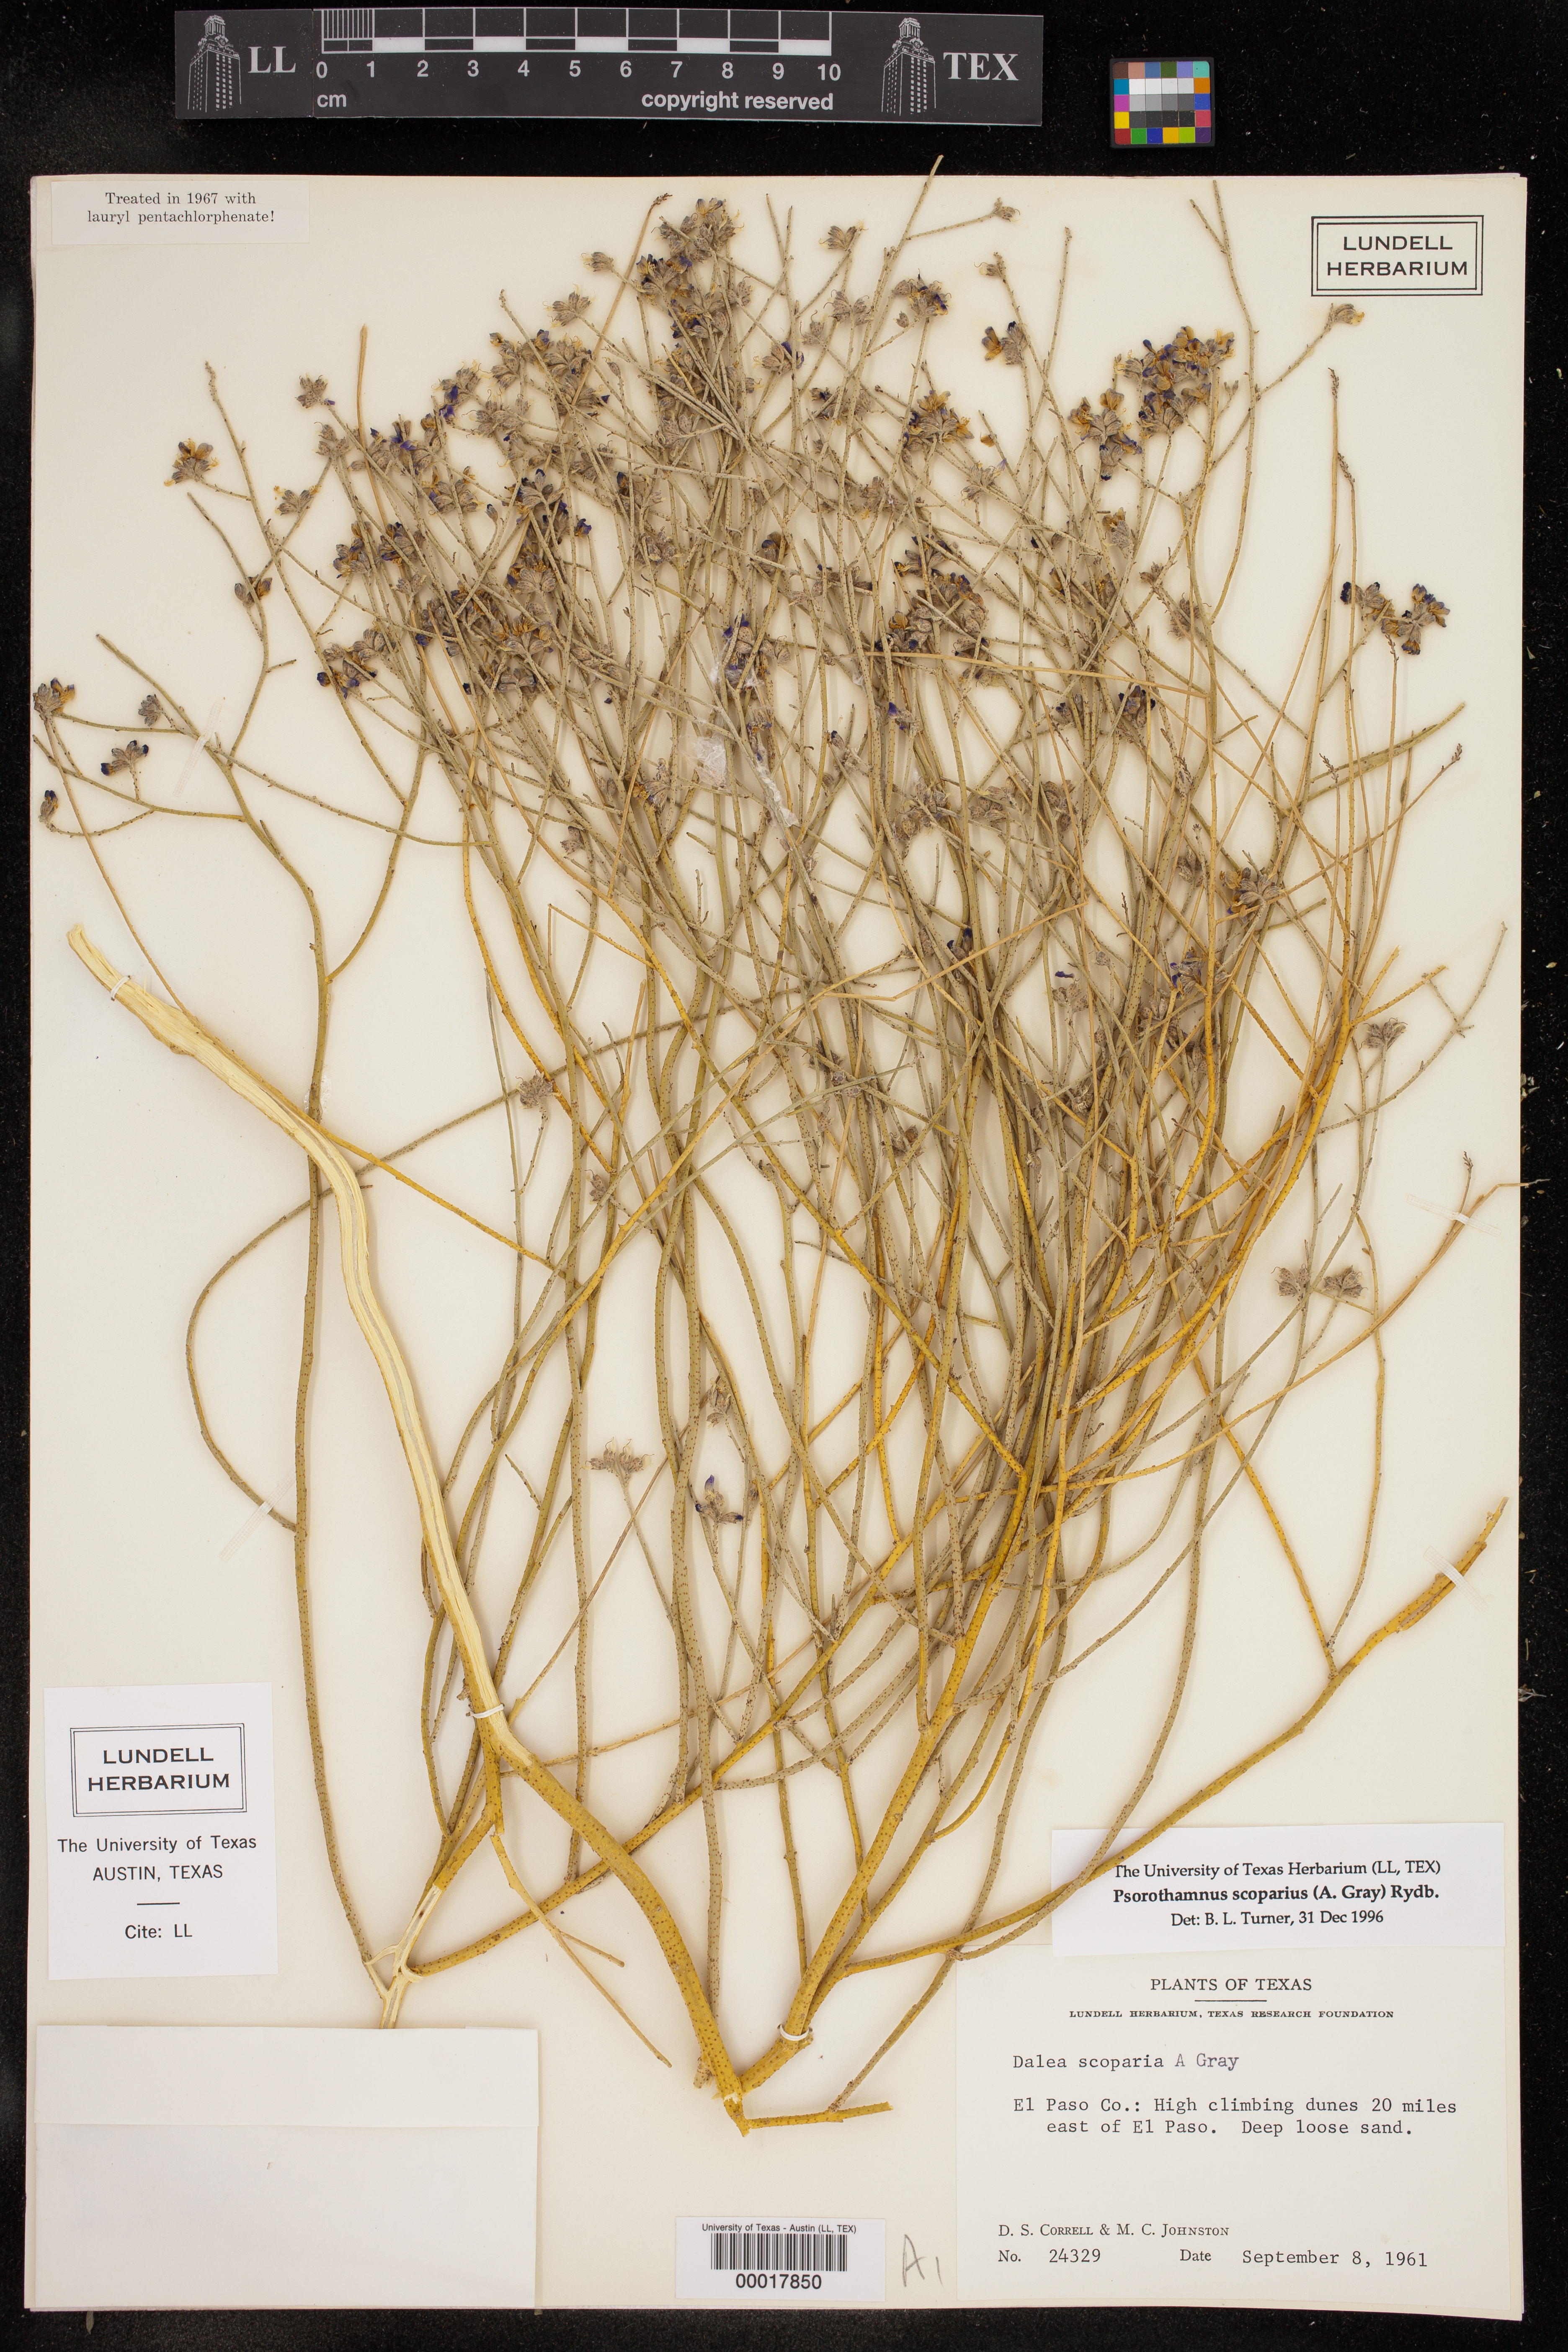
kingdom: Plantae
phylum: Tracheophyta
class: Magnoliopsida
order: Fabales
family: Fabaceae
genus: Psorothamnus
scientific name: Psorothamnus scoparius
